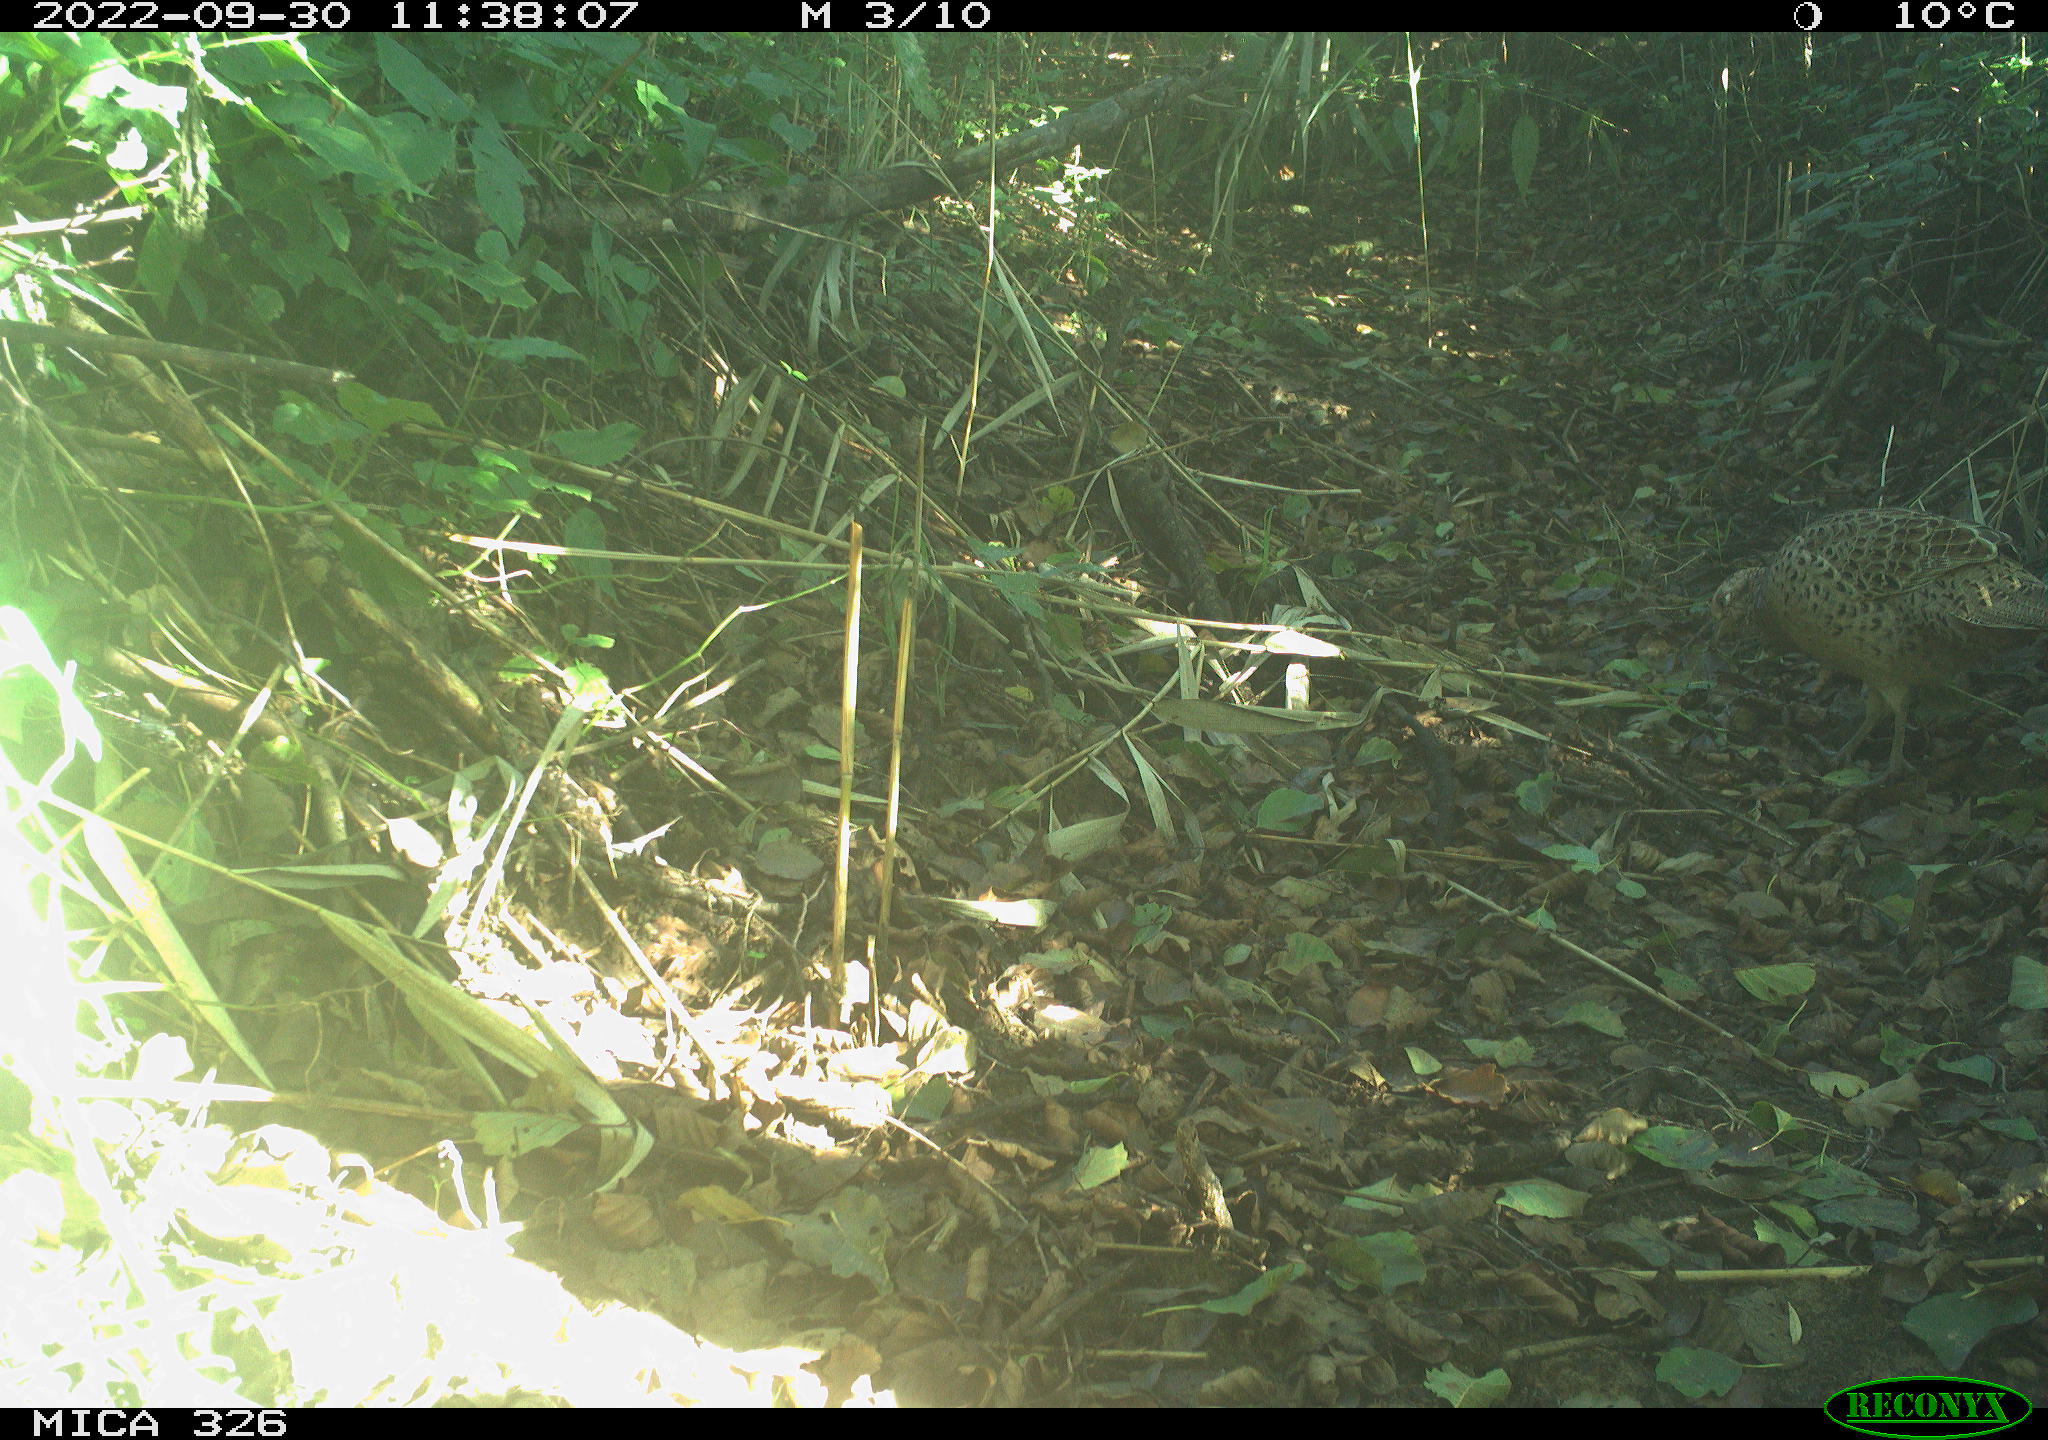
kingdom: Animalia
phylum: Chordata
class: Aves
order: Galliformes
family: Phasianidae
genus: Phasianus
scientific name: Phasianus colchicus
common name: Common pheasant
